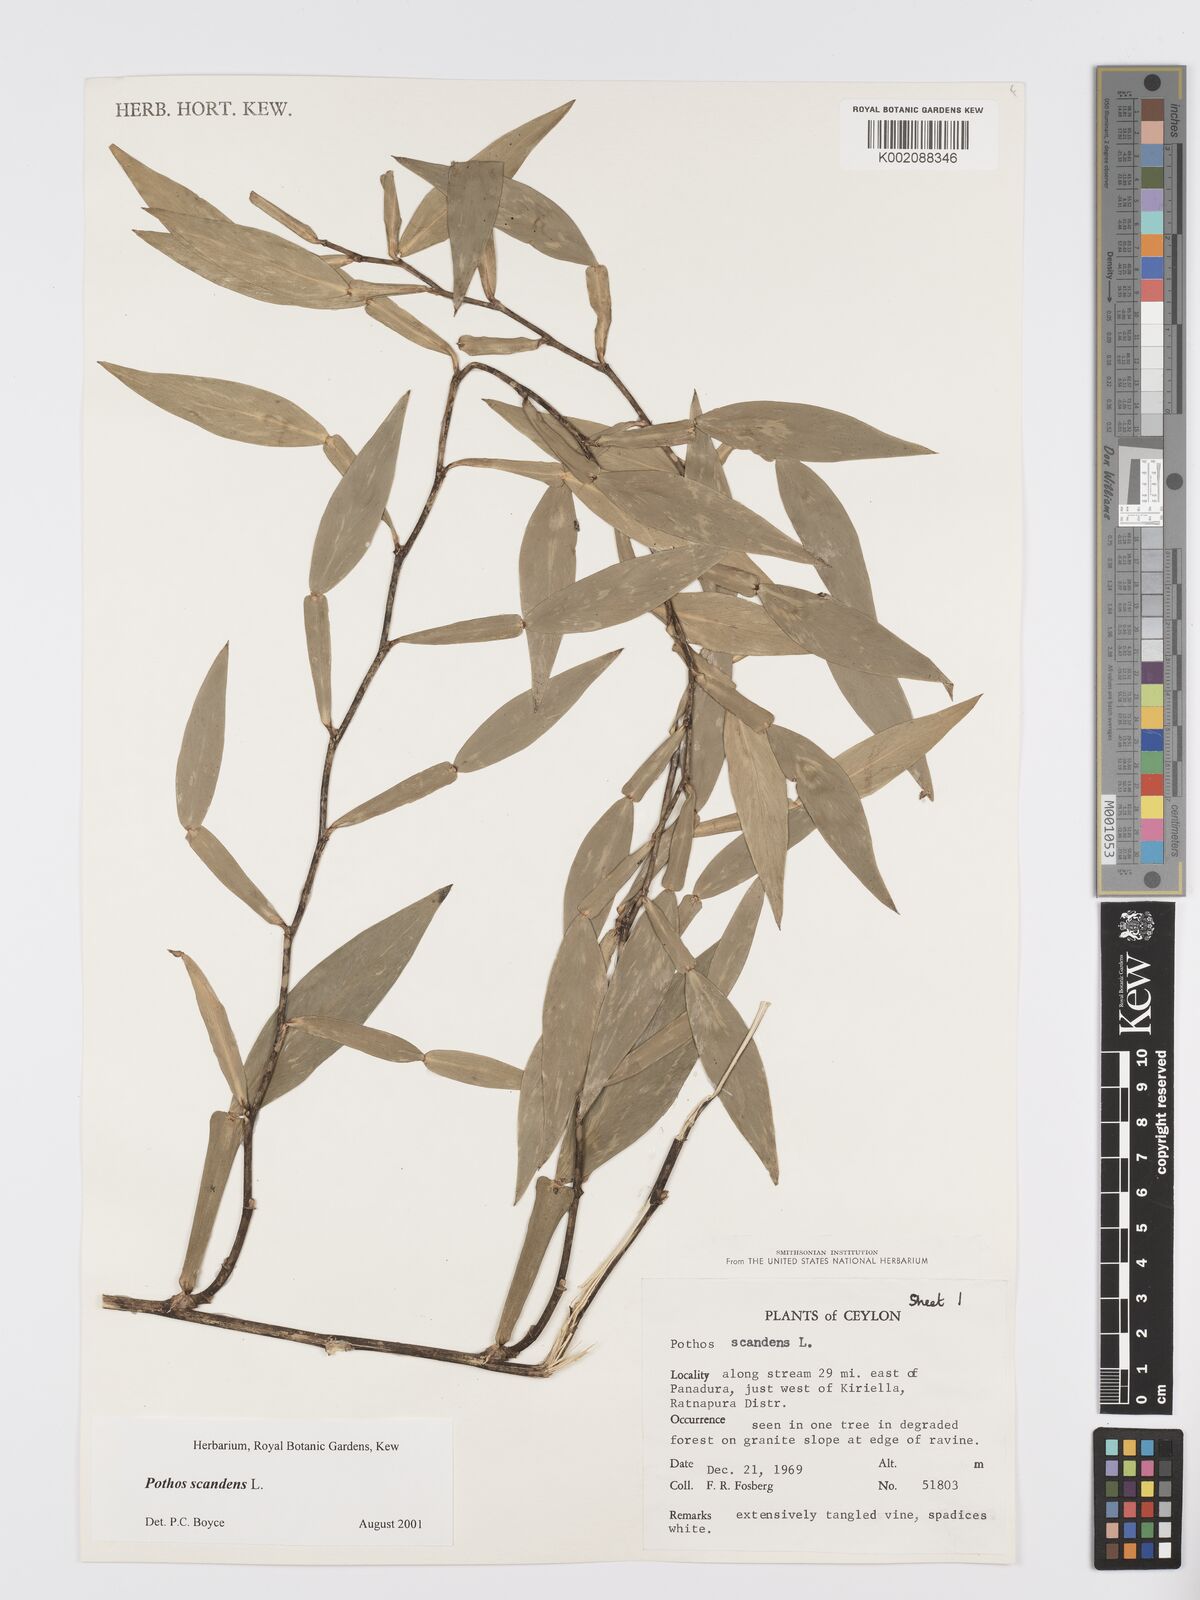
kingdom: Plantae
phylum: Tracheophyta
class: Liliopsida
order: Alismatales
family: Araceae
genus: Pothos
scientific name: Pothos scandens
